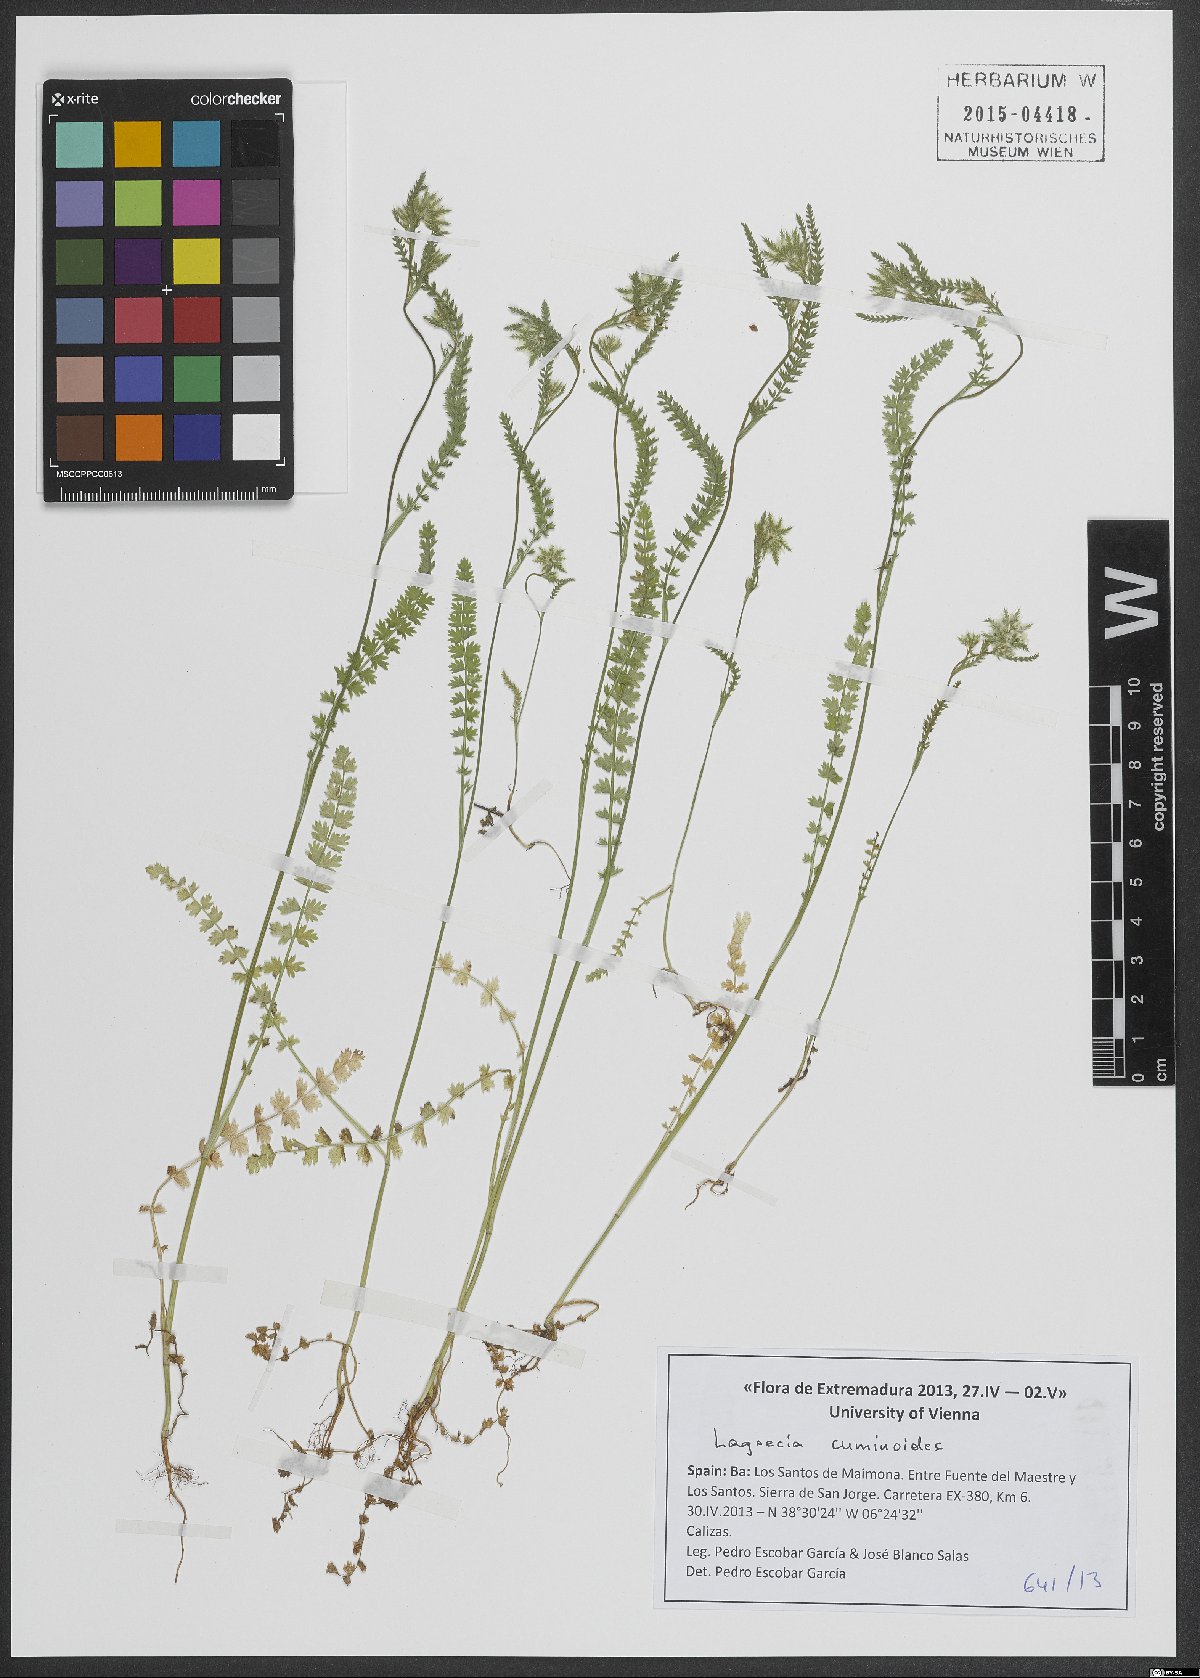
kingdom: Plantae
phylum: Tracheophyta
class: Magnoliopsida
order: Apiales
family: Apiaceae
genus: Lagoecia
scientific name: Lagoecia cuminoides
